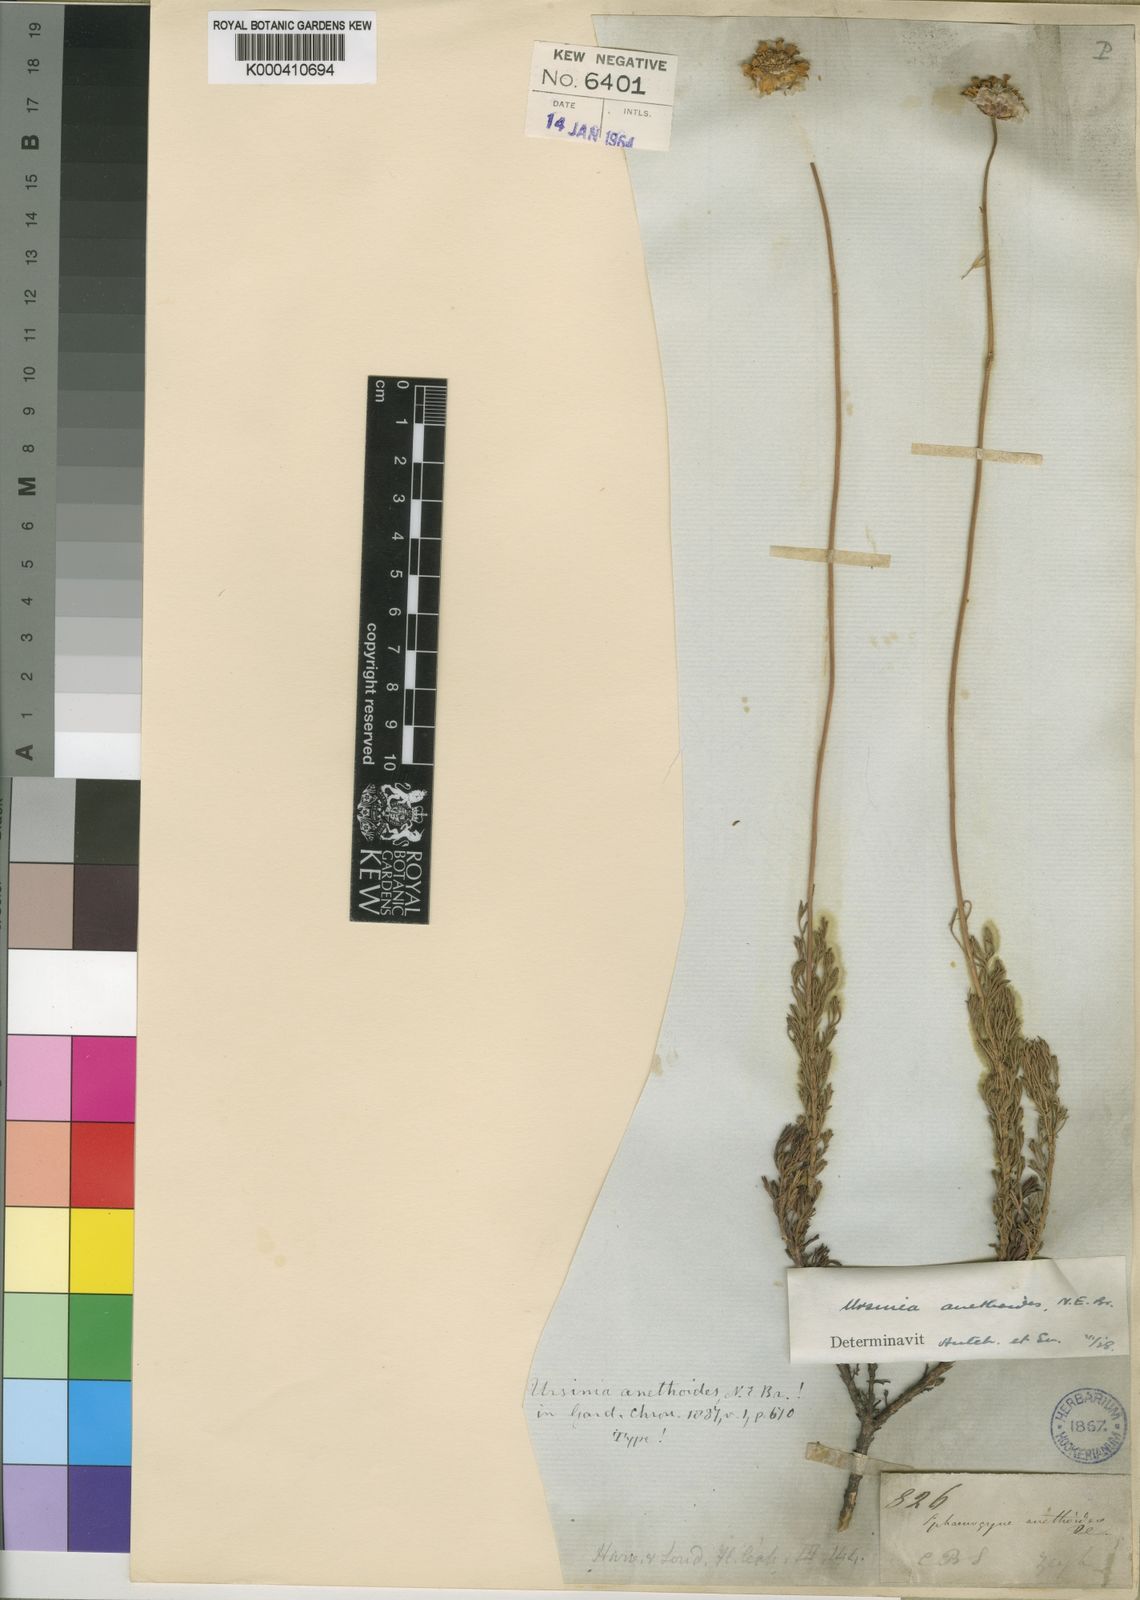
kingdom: Plantae
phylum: Tracheophyta
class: Magnoliopsida
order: Asterales
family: Asteraceae
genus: Ursinia
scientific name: Ursinia anethoides
